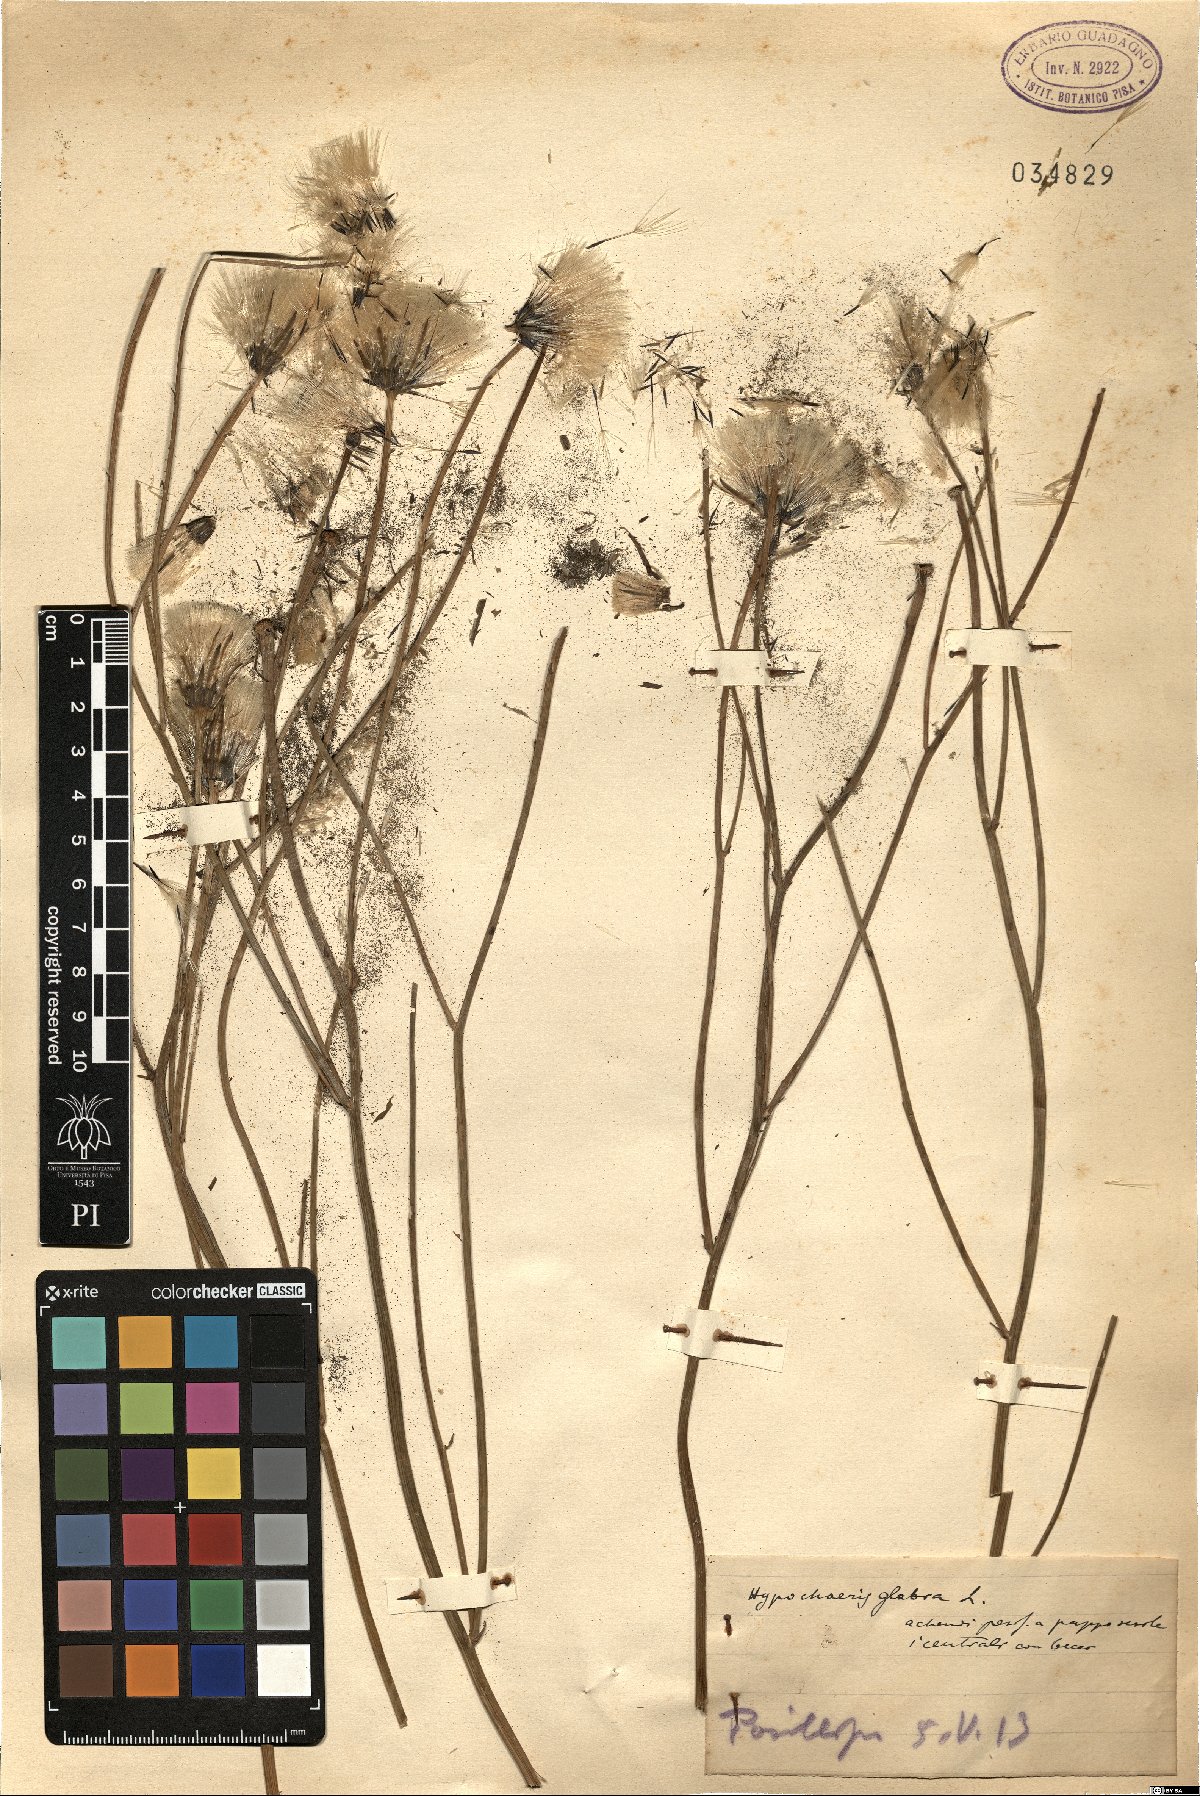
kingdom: Plantae
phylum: Tracheophyta
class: Magnoliopsida
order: Asterales
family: Asteraceae
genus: Hypochaeris
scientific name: Hypochaeris glabra
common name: Smooth catsear
